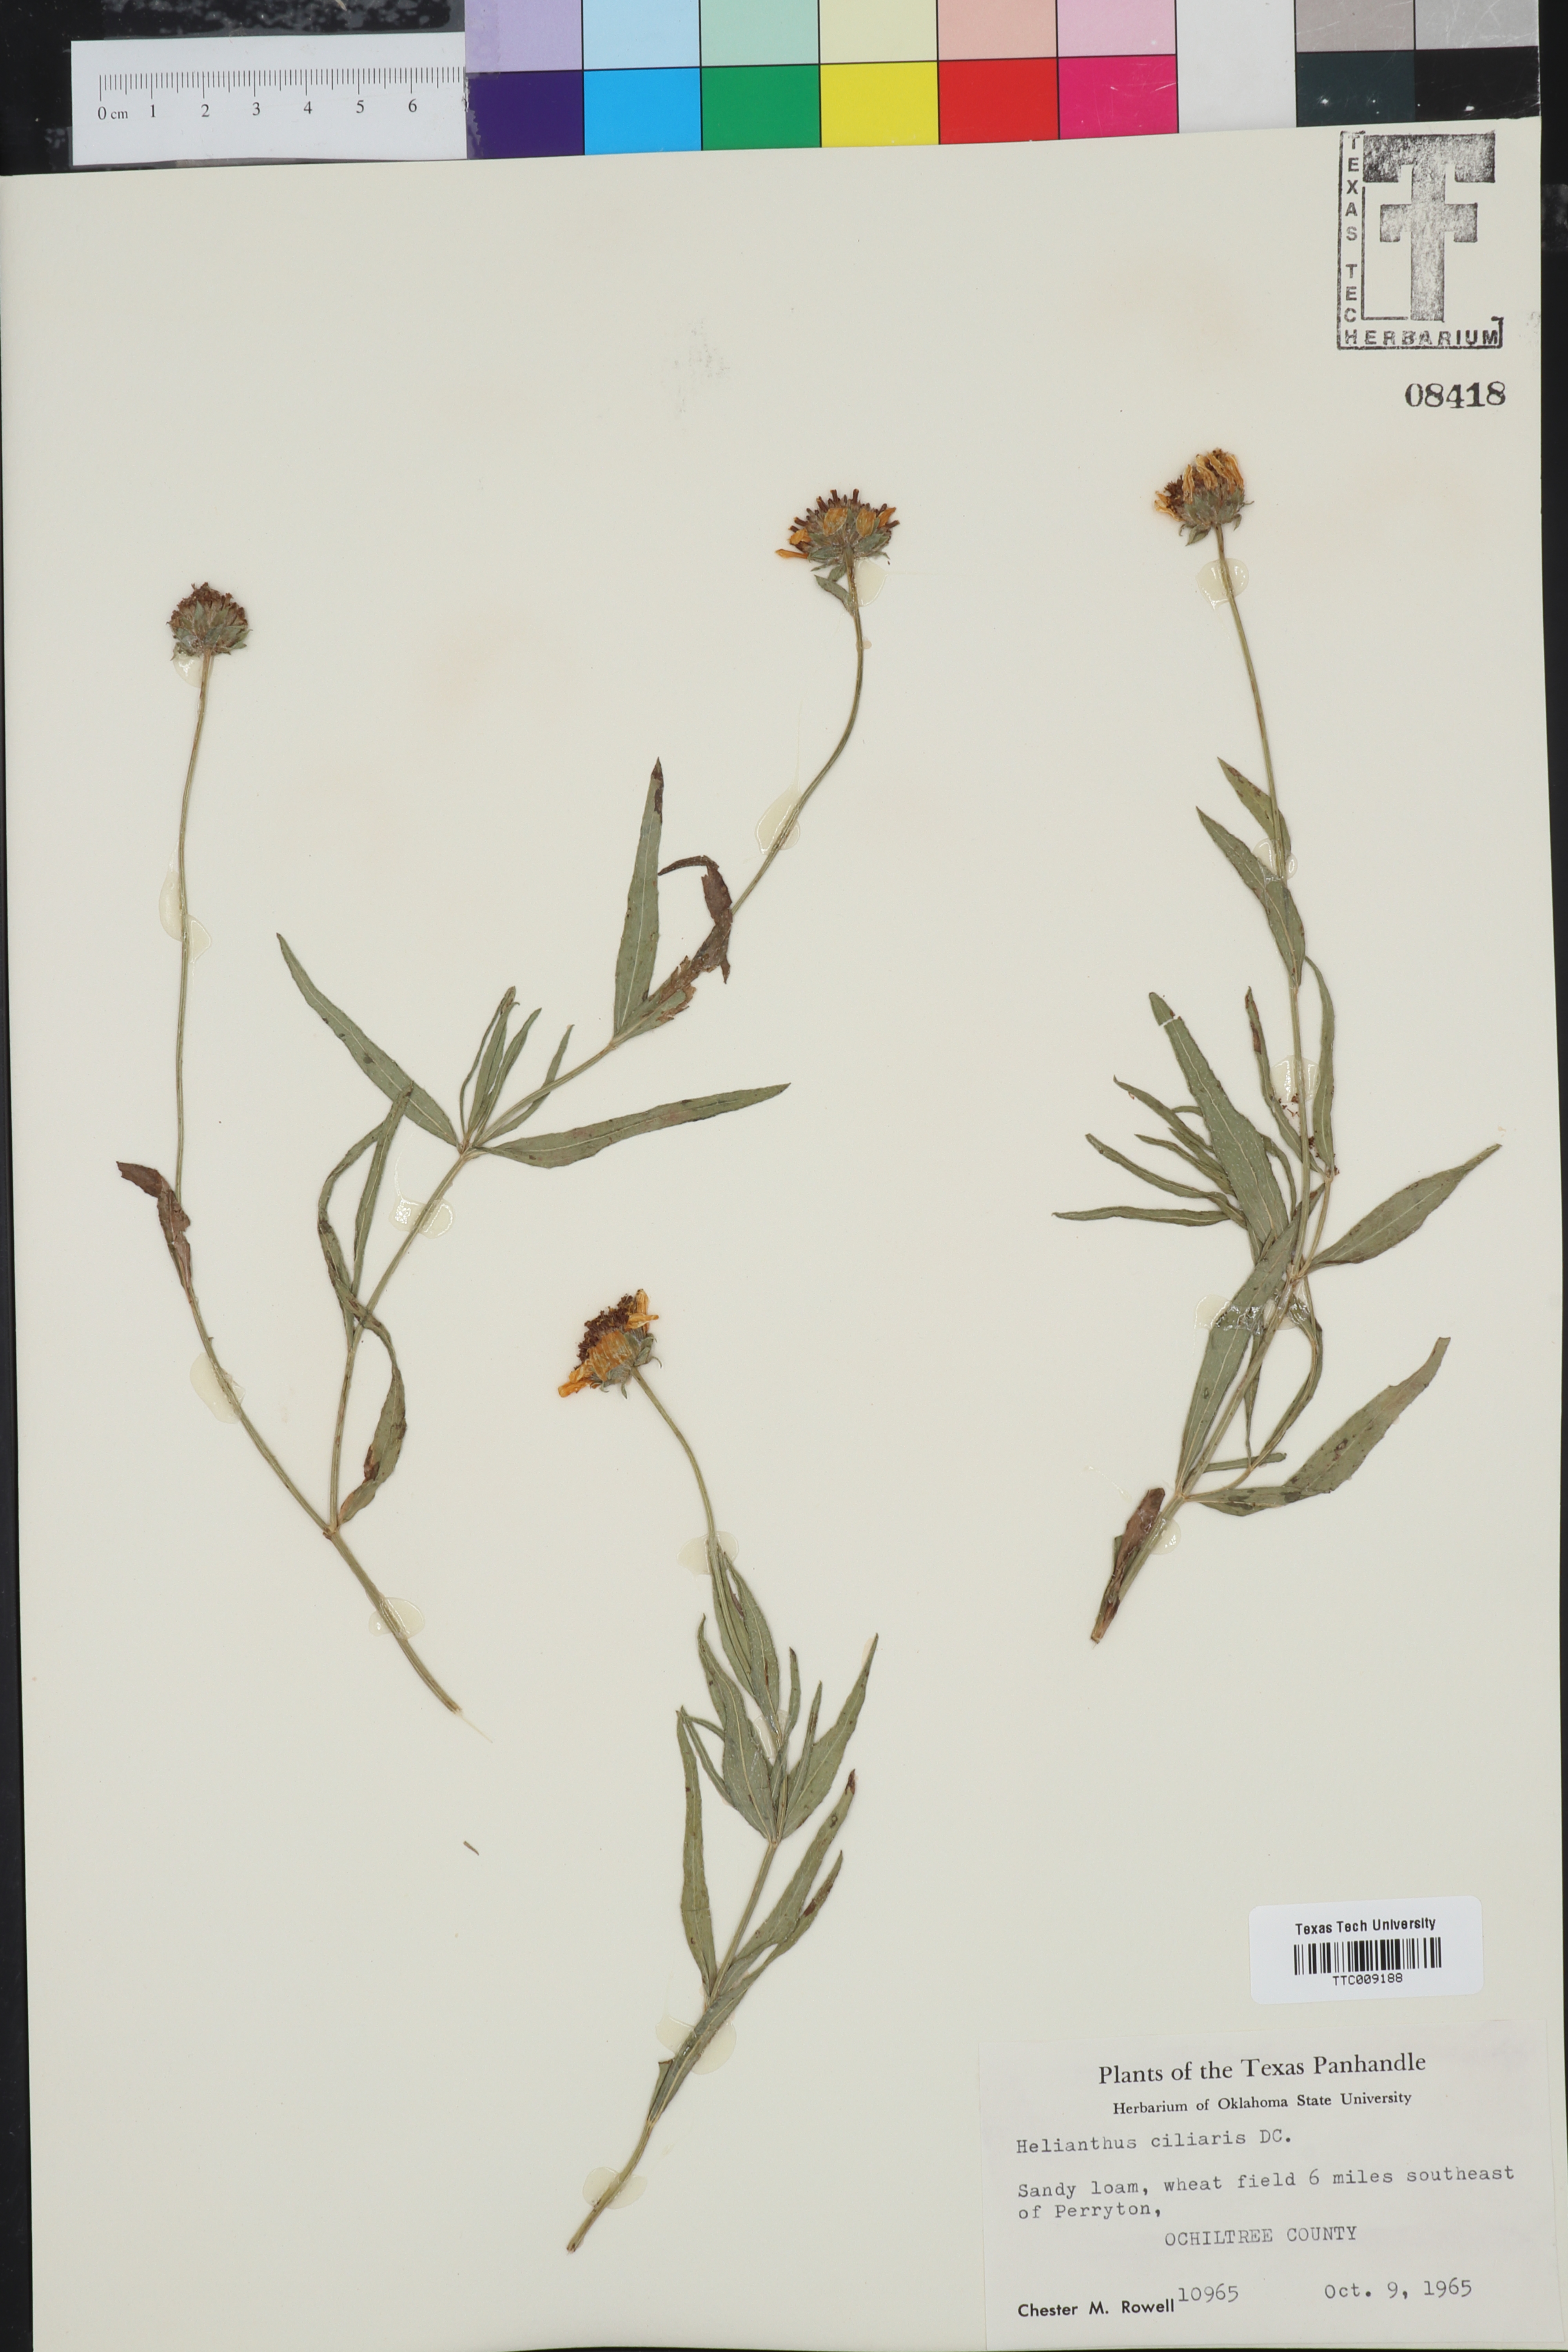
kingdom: Plantae
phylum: Tracheophyta
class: Magnoliopsida
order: Asterales
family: Asteraceae
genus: Helianthus
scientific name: Helianthus ciliaris
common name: Texas blueweed
